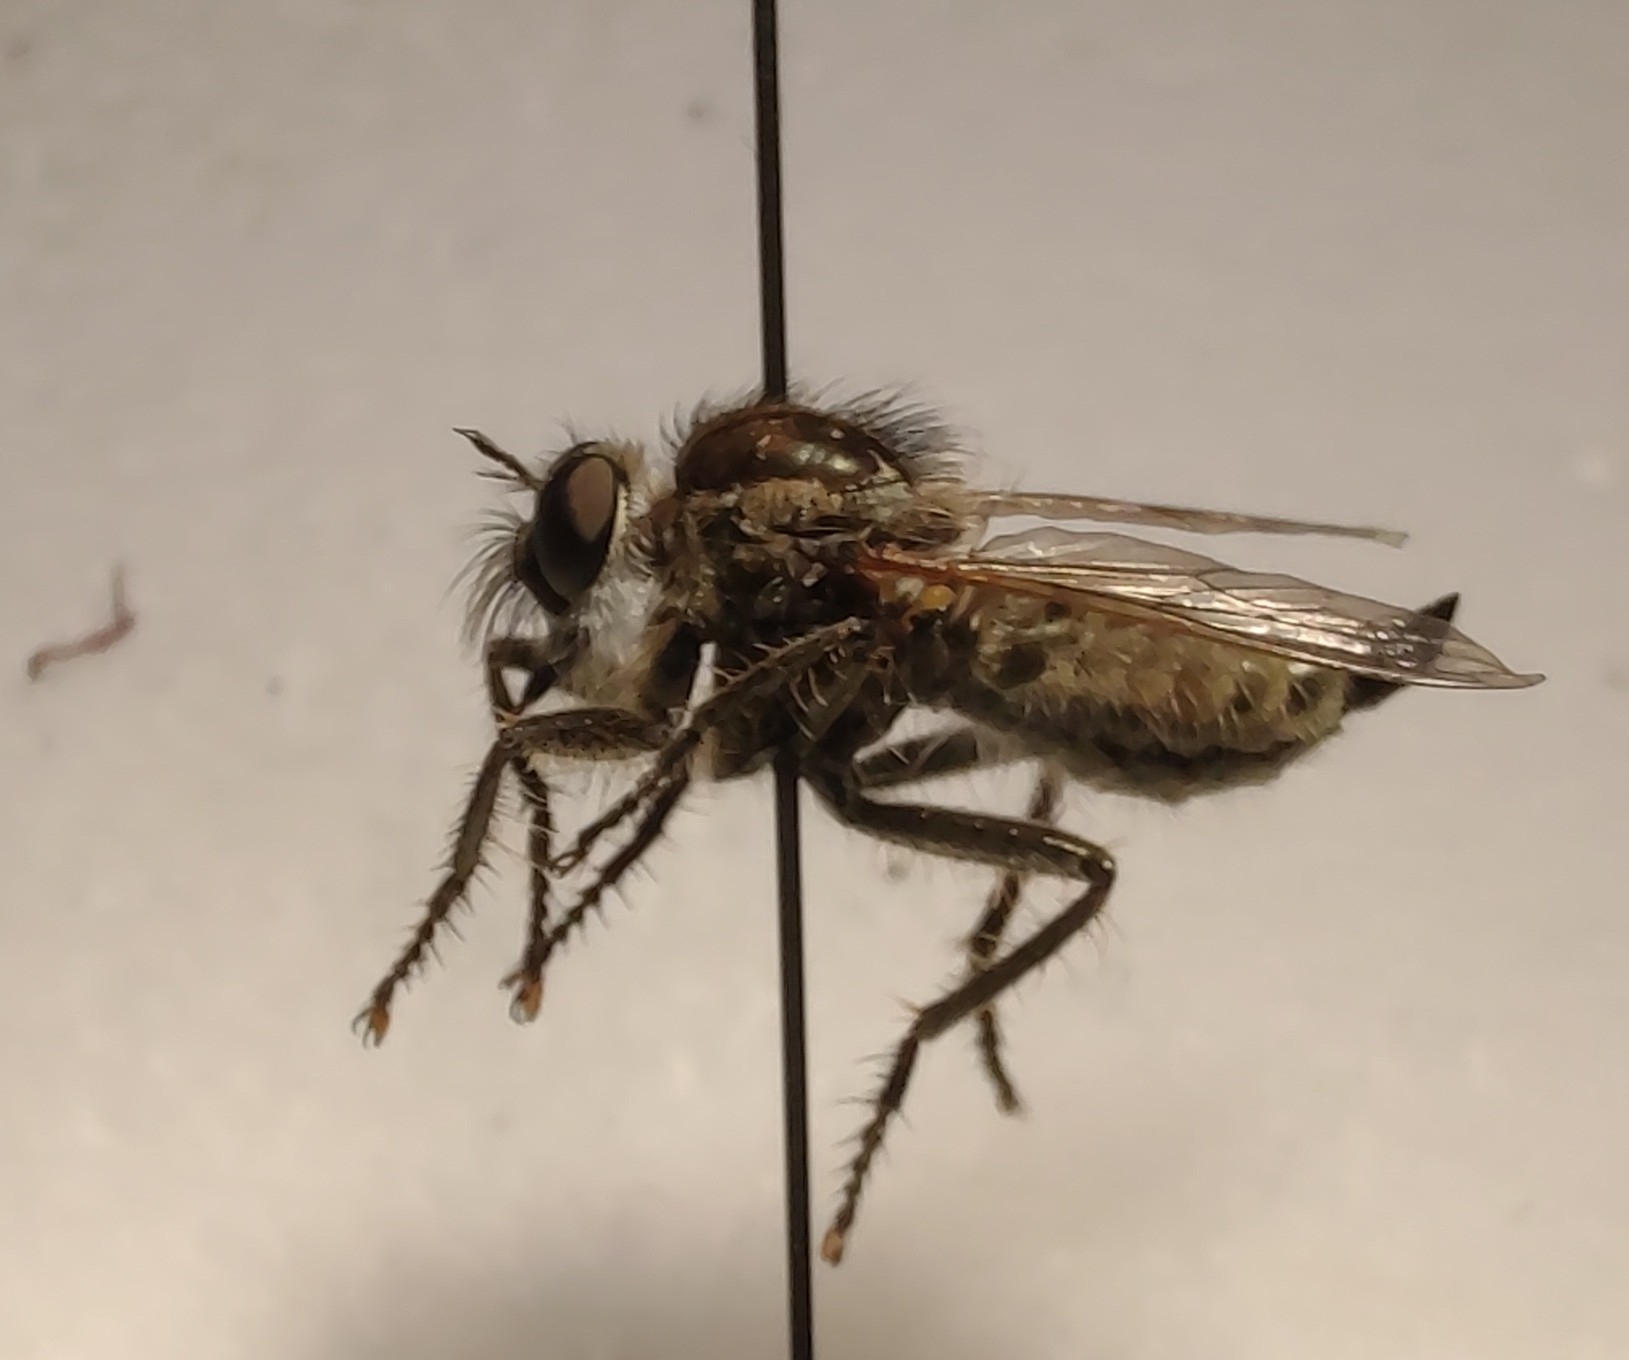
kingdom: Animalia
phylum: Arthropoda
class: Insecta
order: Diptera
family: Asilidae
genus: Dysmachus
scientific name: Dysmachus trigonus
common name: Hvid skægrovflue
